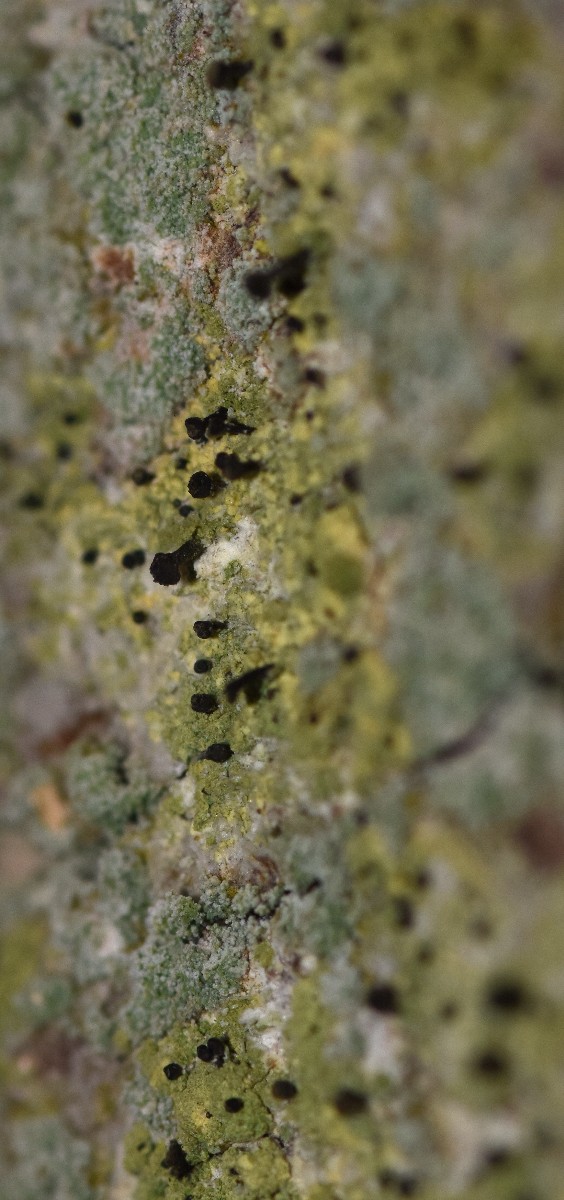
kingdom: Fungi
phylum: Ascomycota
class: Coniocybomycetes
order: Coniocybales
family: Coniocybaceae
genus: Chaenotheca
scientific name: Chaenotheca ferruginea
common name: rustbrun knappenålslav
